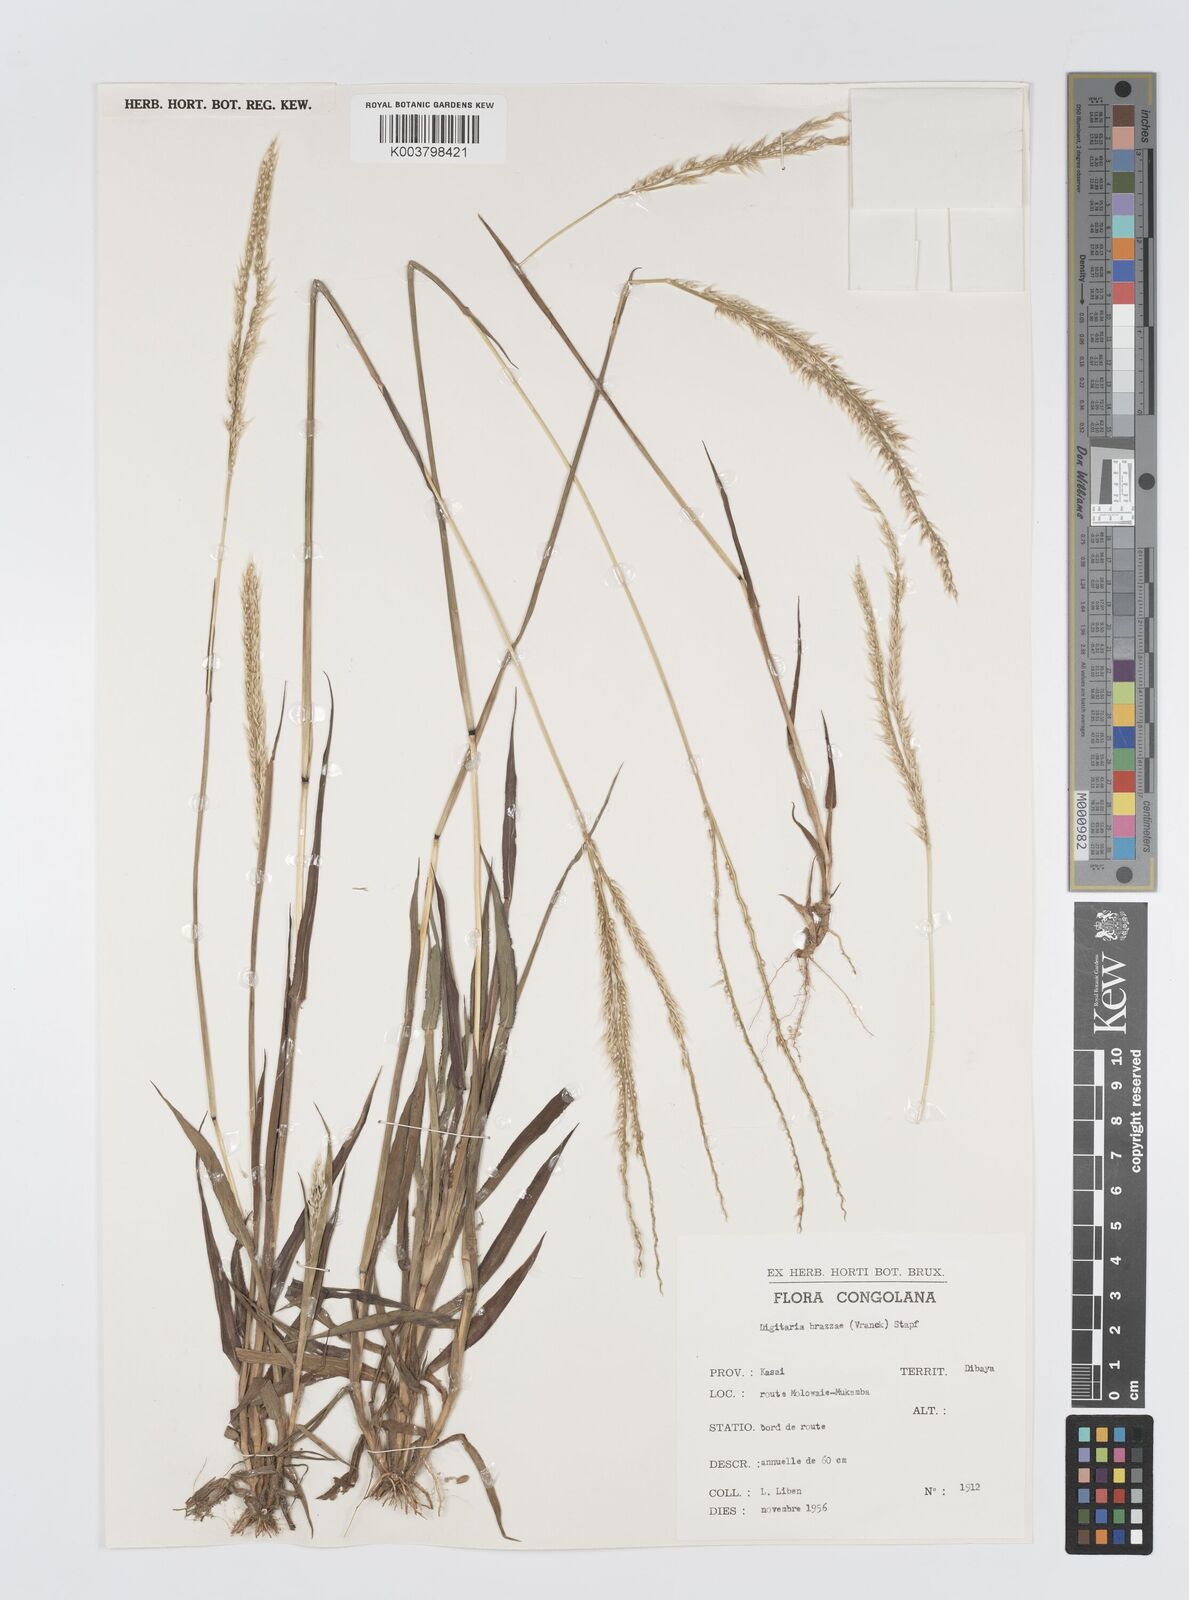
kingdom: Plantae
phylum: Tracheophyta
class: Liliopsida
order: Poales
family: Poaceae
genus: Digitaria
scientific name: Digitaria gayana
